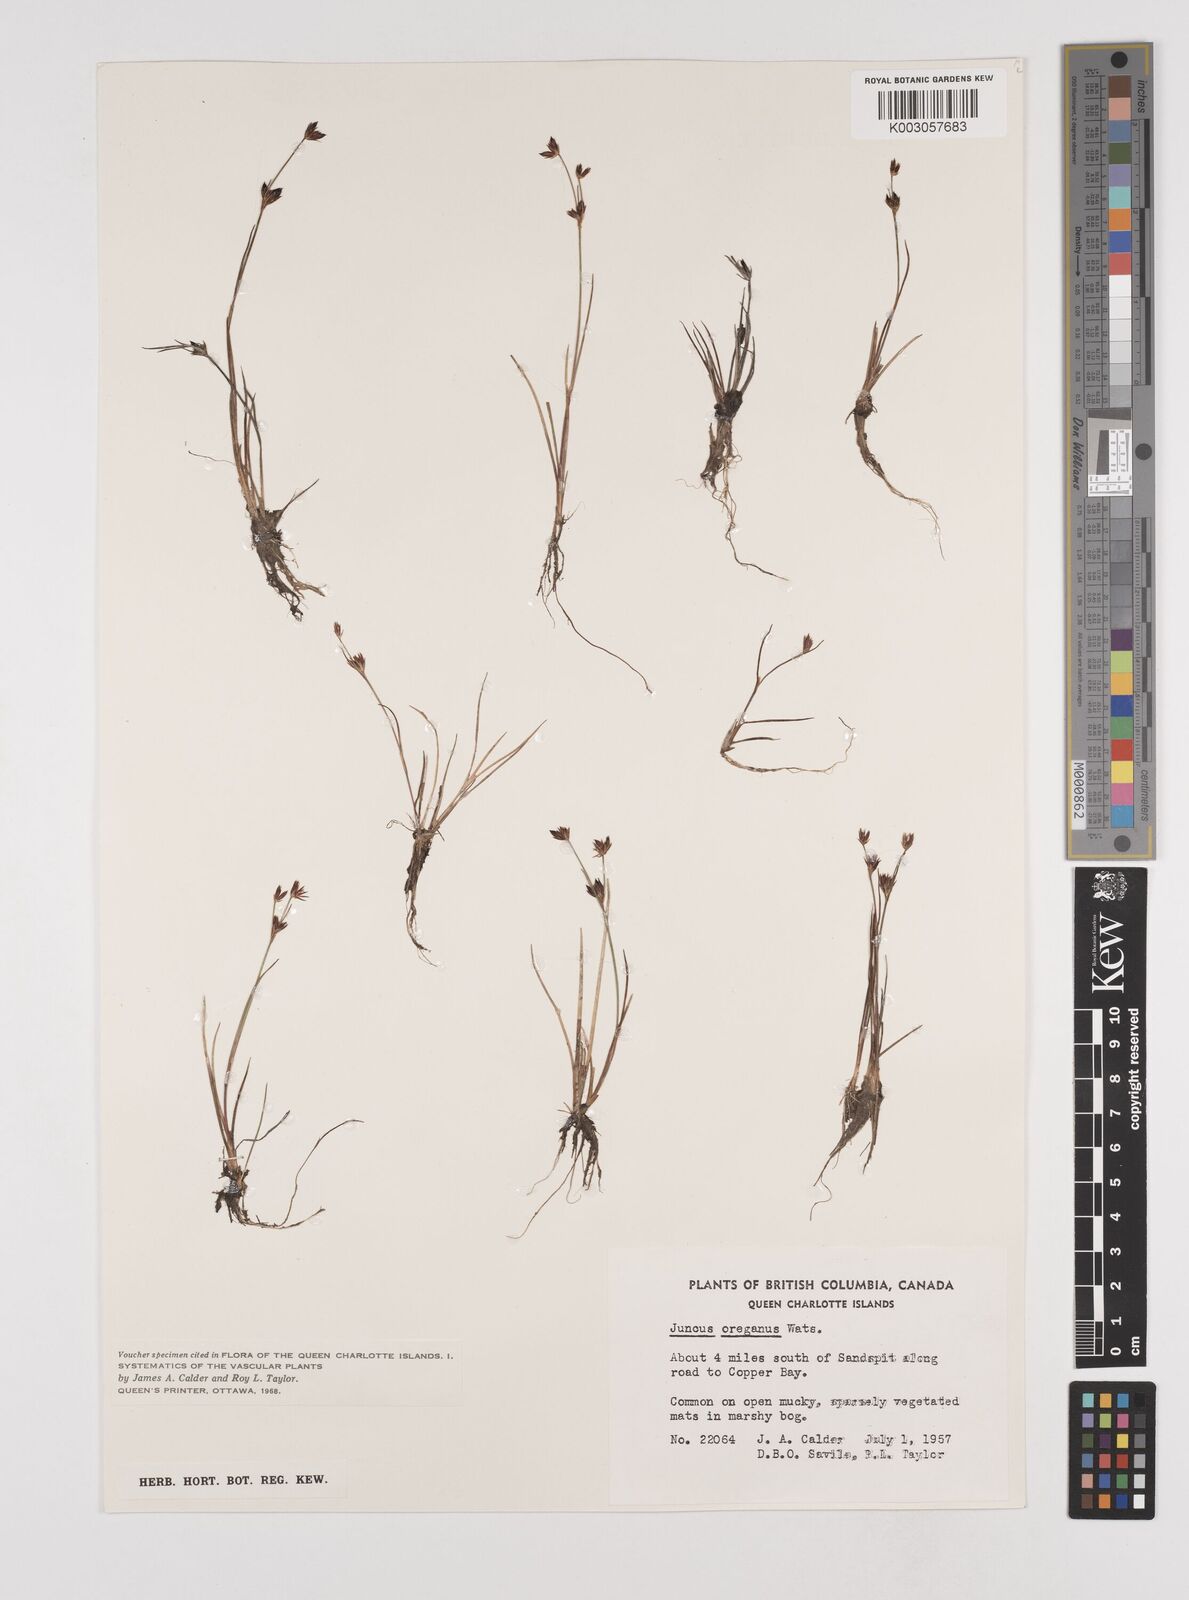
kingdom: Plantae
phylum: Tracheophyta
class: Liliopsida
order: Poales
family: Juncaceae
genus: Juncus
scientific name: Juncus supiniformis
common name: Hairy-leaved rush
